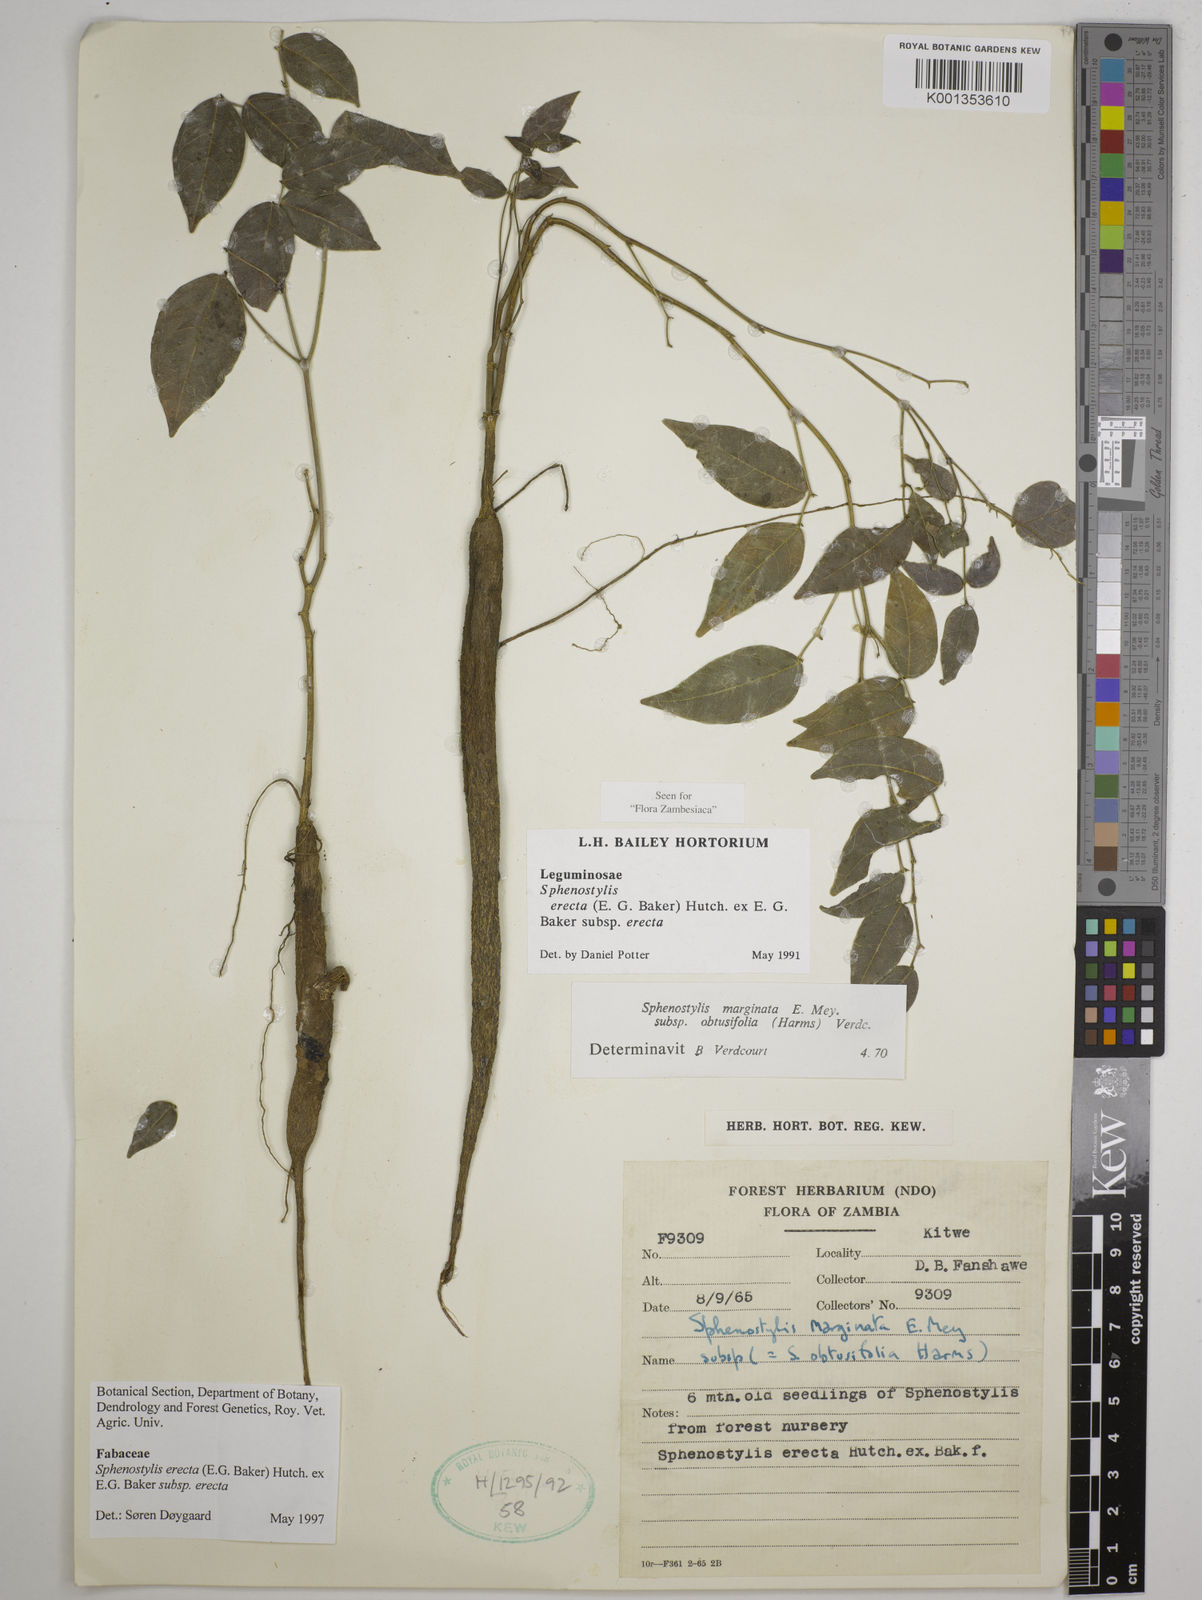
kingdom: Plantae
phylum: Tracheophyta
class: Magnoliopsida
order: Fabales
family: Fabaceae
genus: Sphenostylis
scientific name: Sphenostylis erecta
